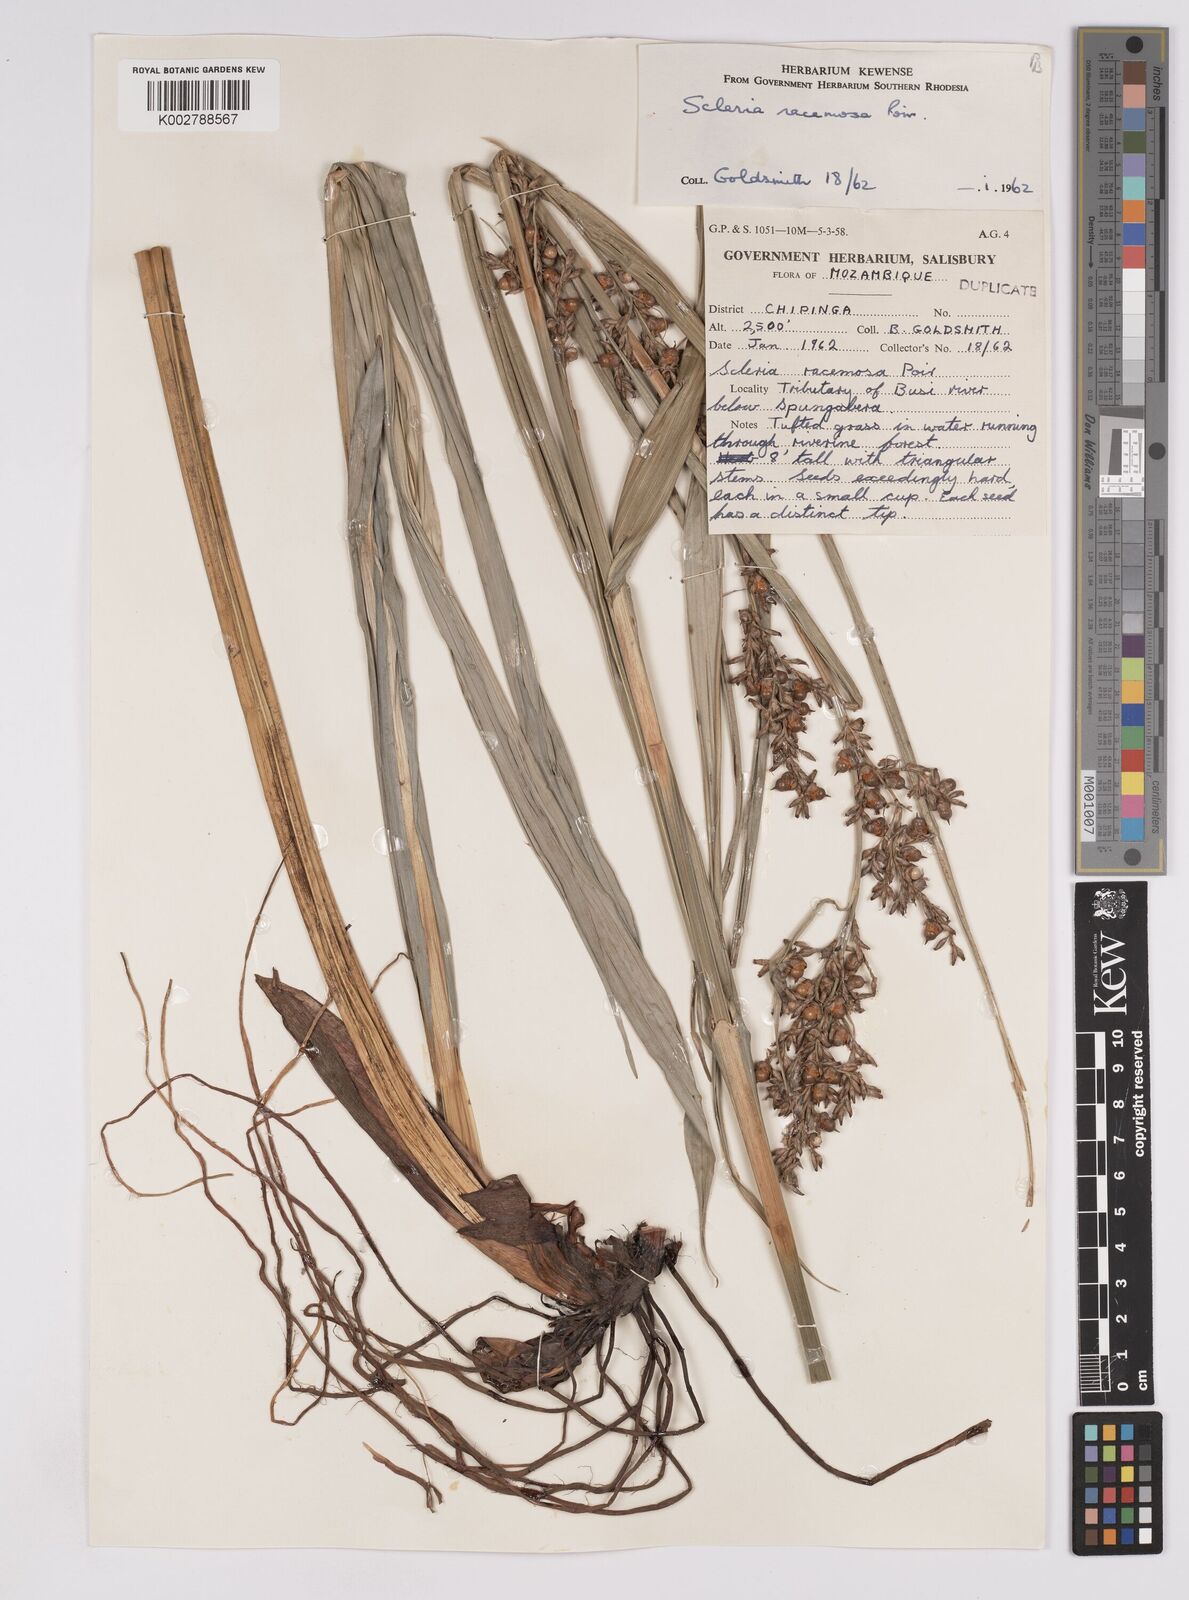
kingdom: Plantae
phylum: Tracheophyta
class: Liliopsida
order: Poales
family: Cyperaceae
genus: Scleria
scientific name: Scleria racemosa
